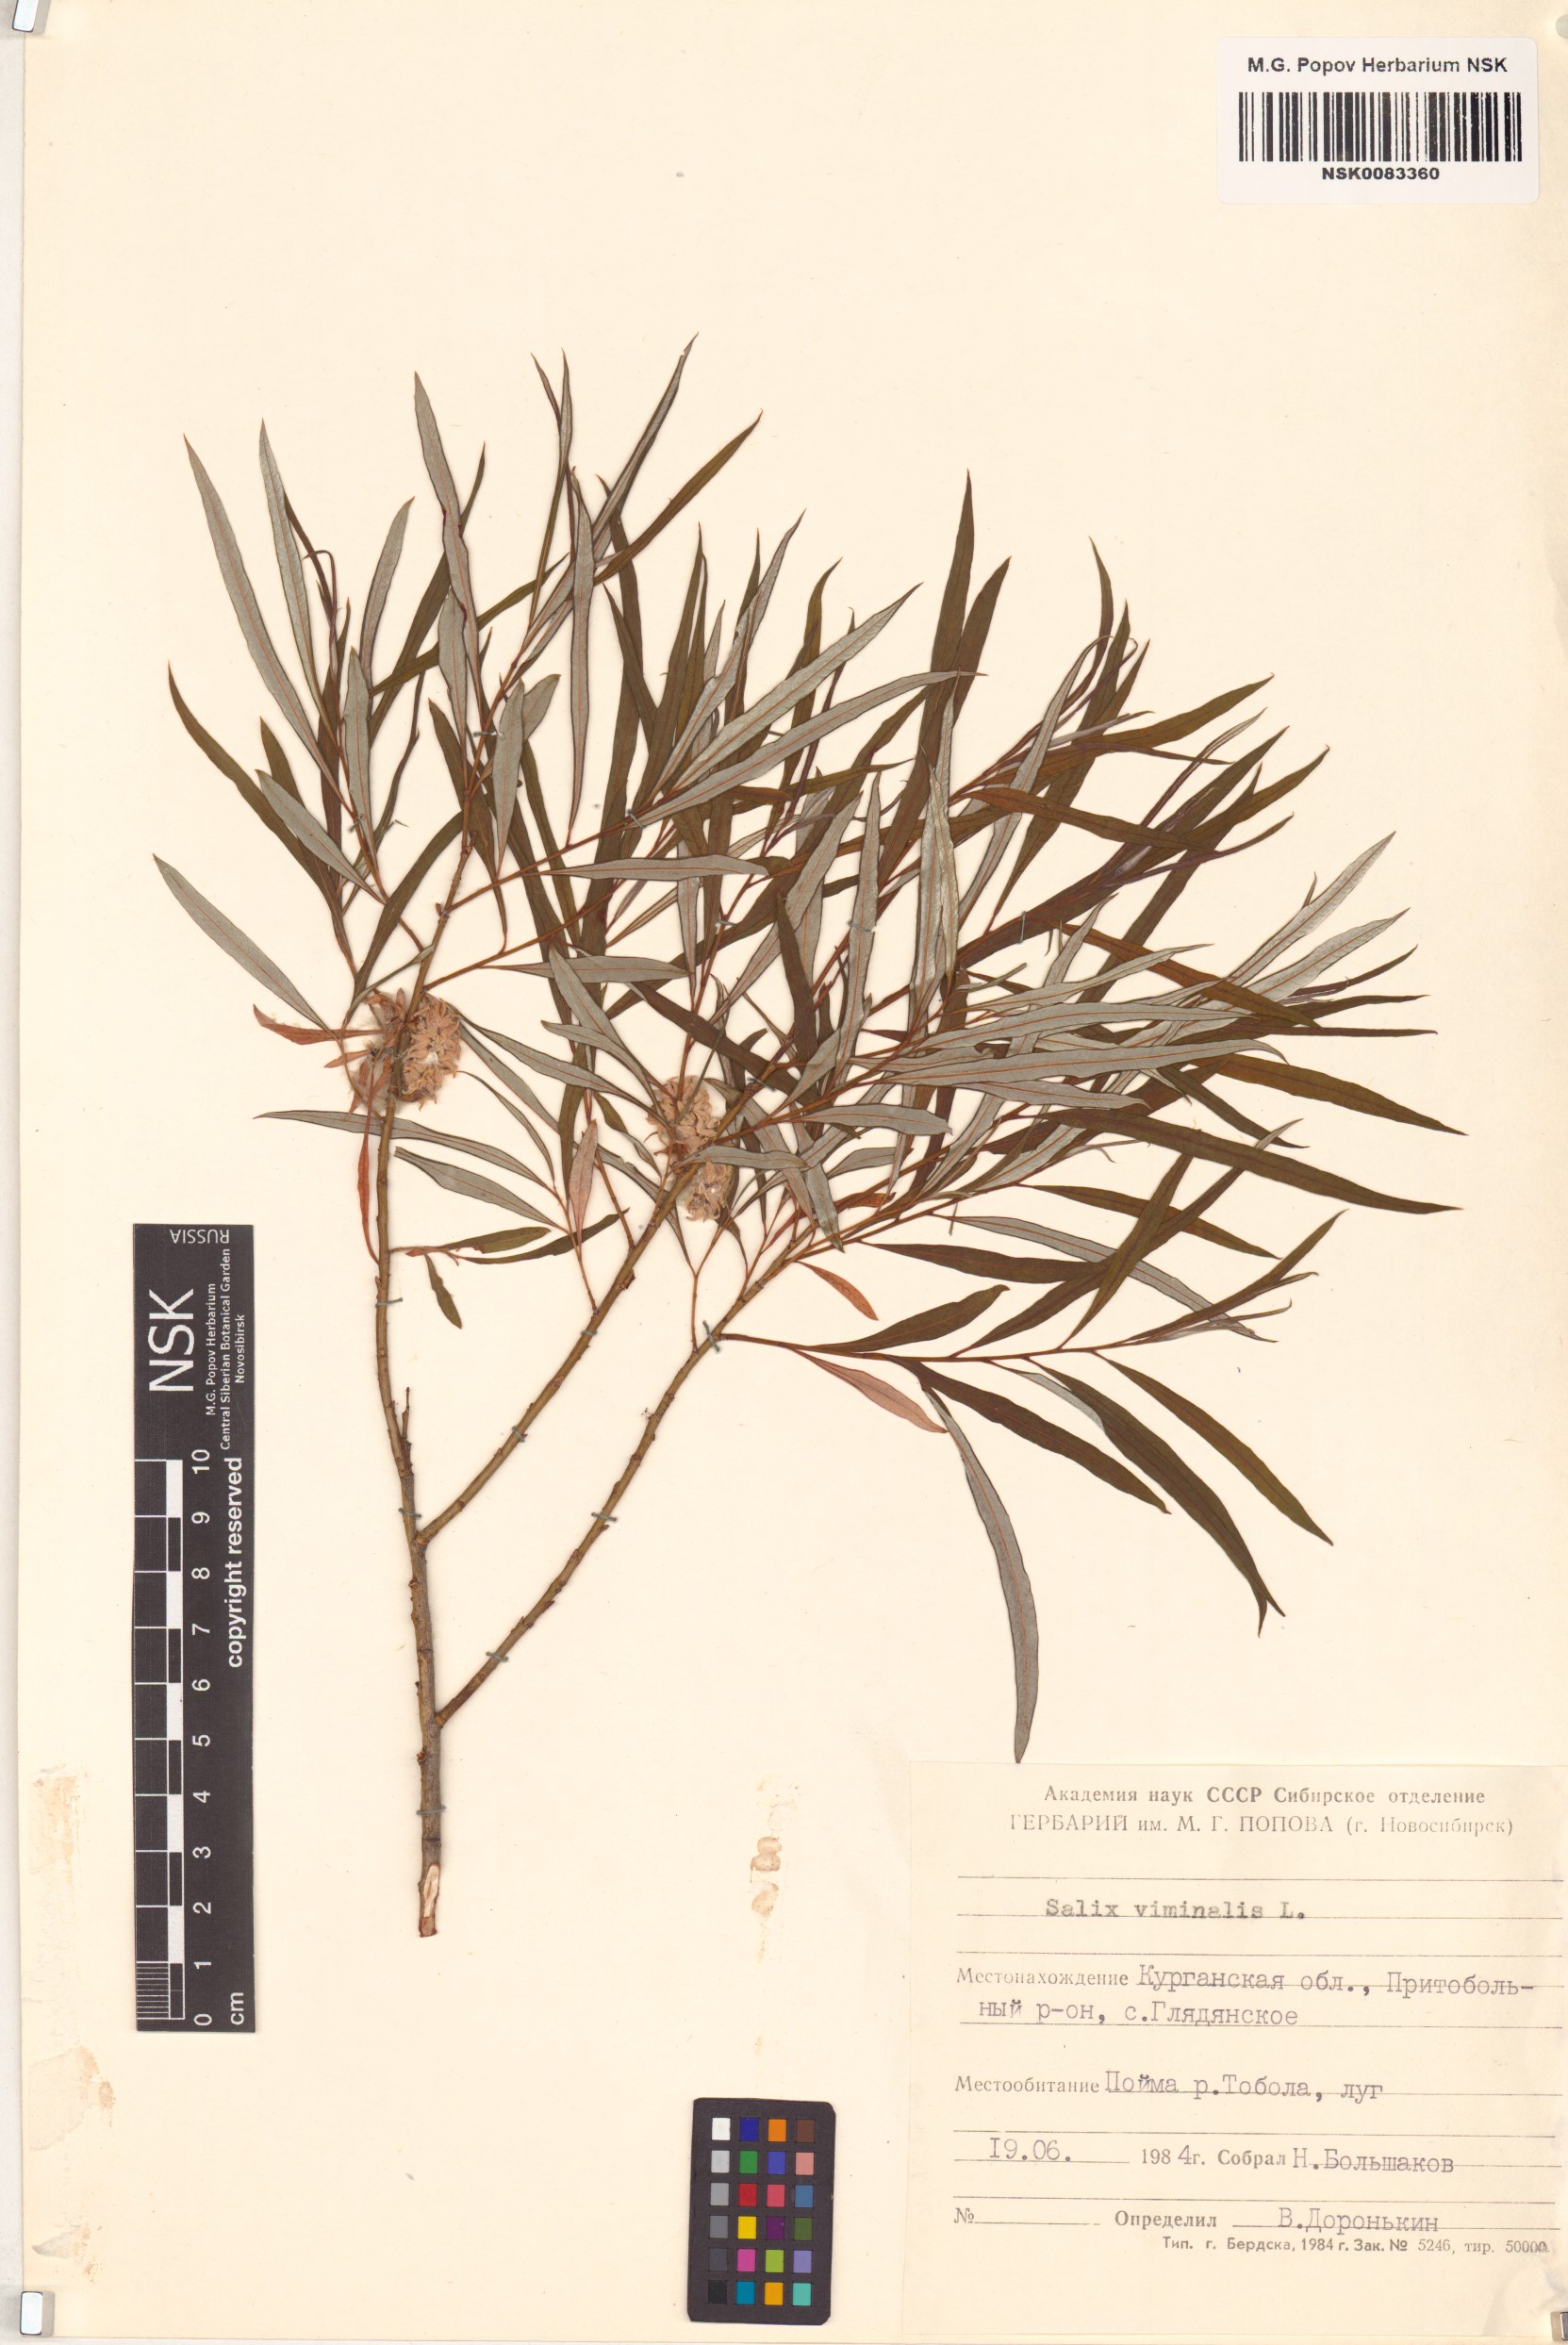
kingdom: Plantae
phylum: Tracheophyta
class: Magnoliopsida
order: Malpighiales
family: Salicaceae
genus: Salix
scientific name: Salix viminalis
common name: Osier
